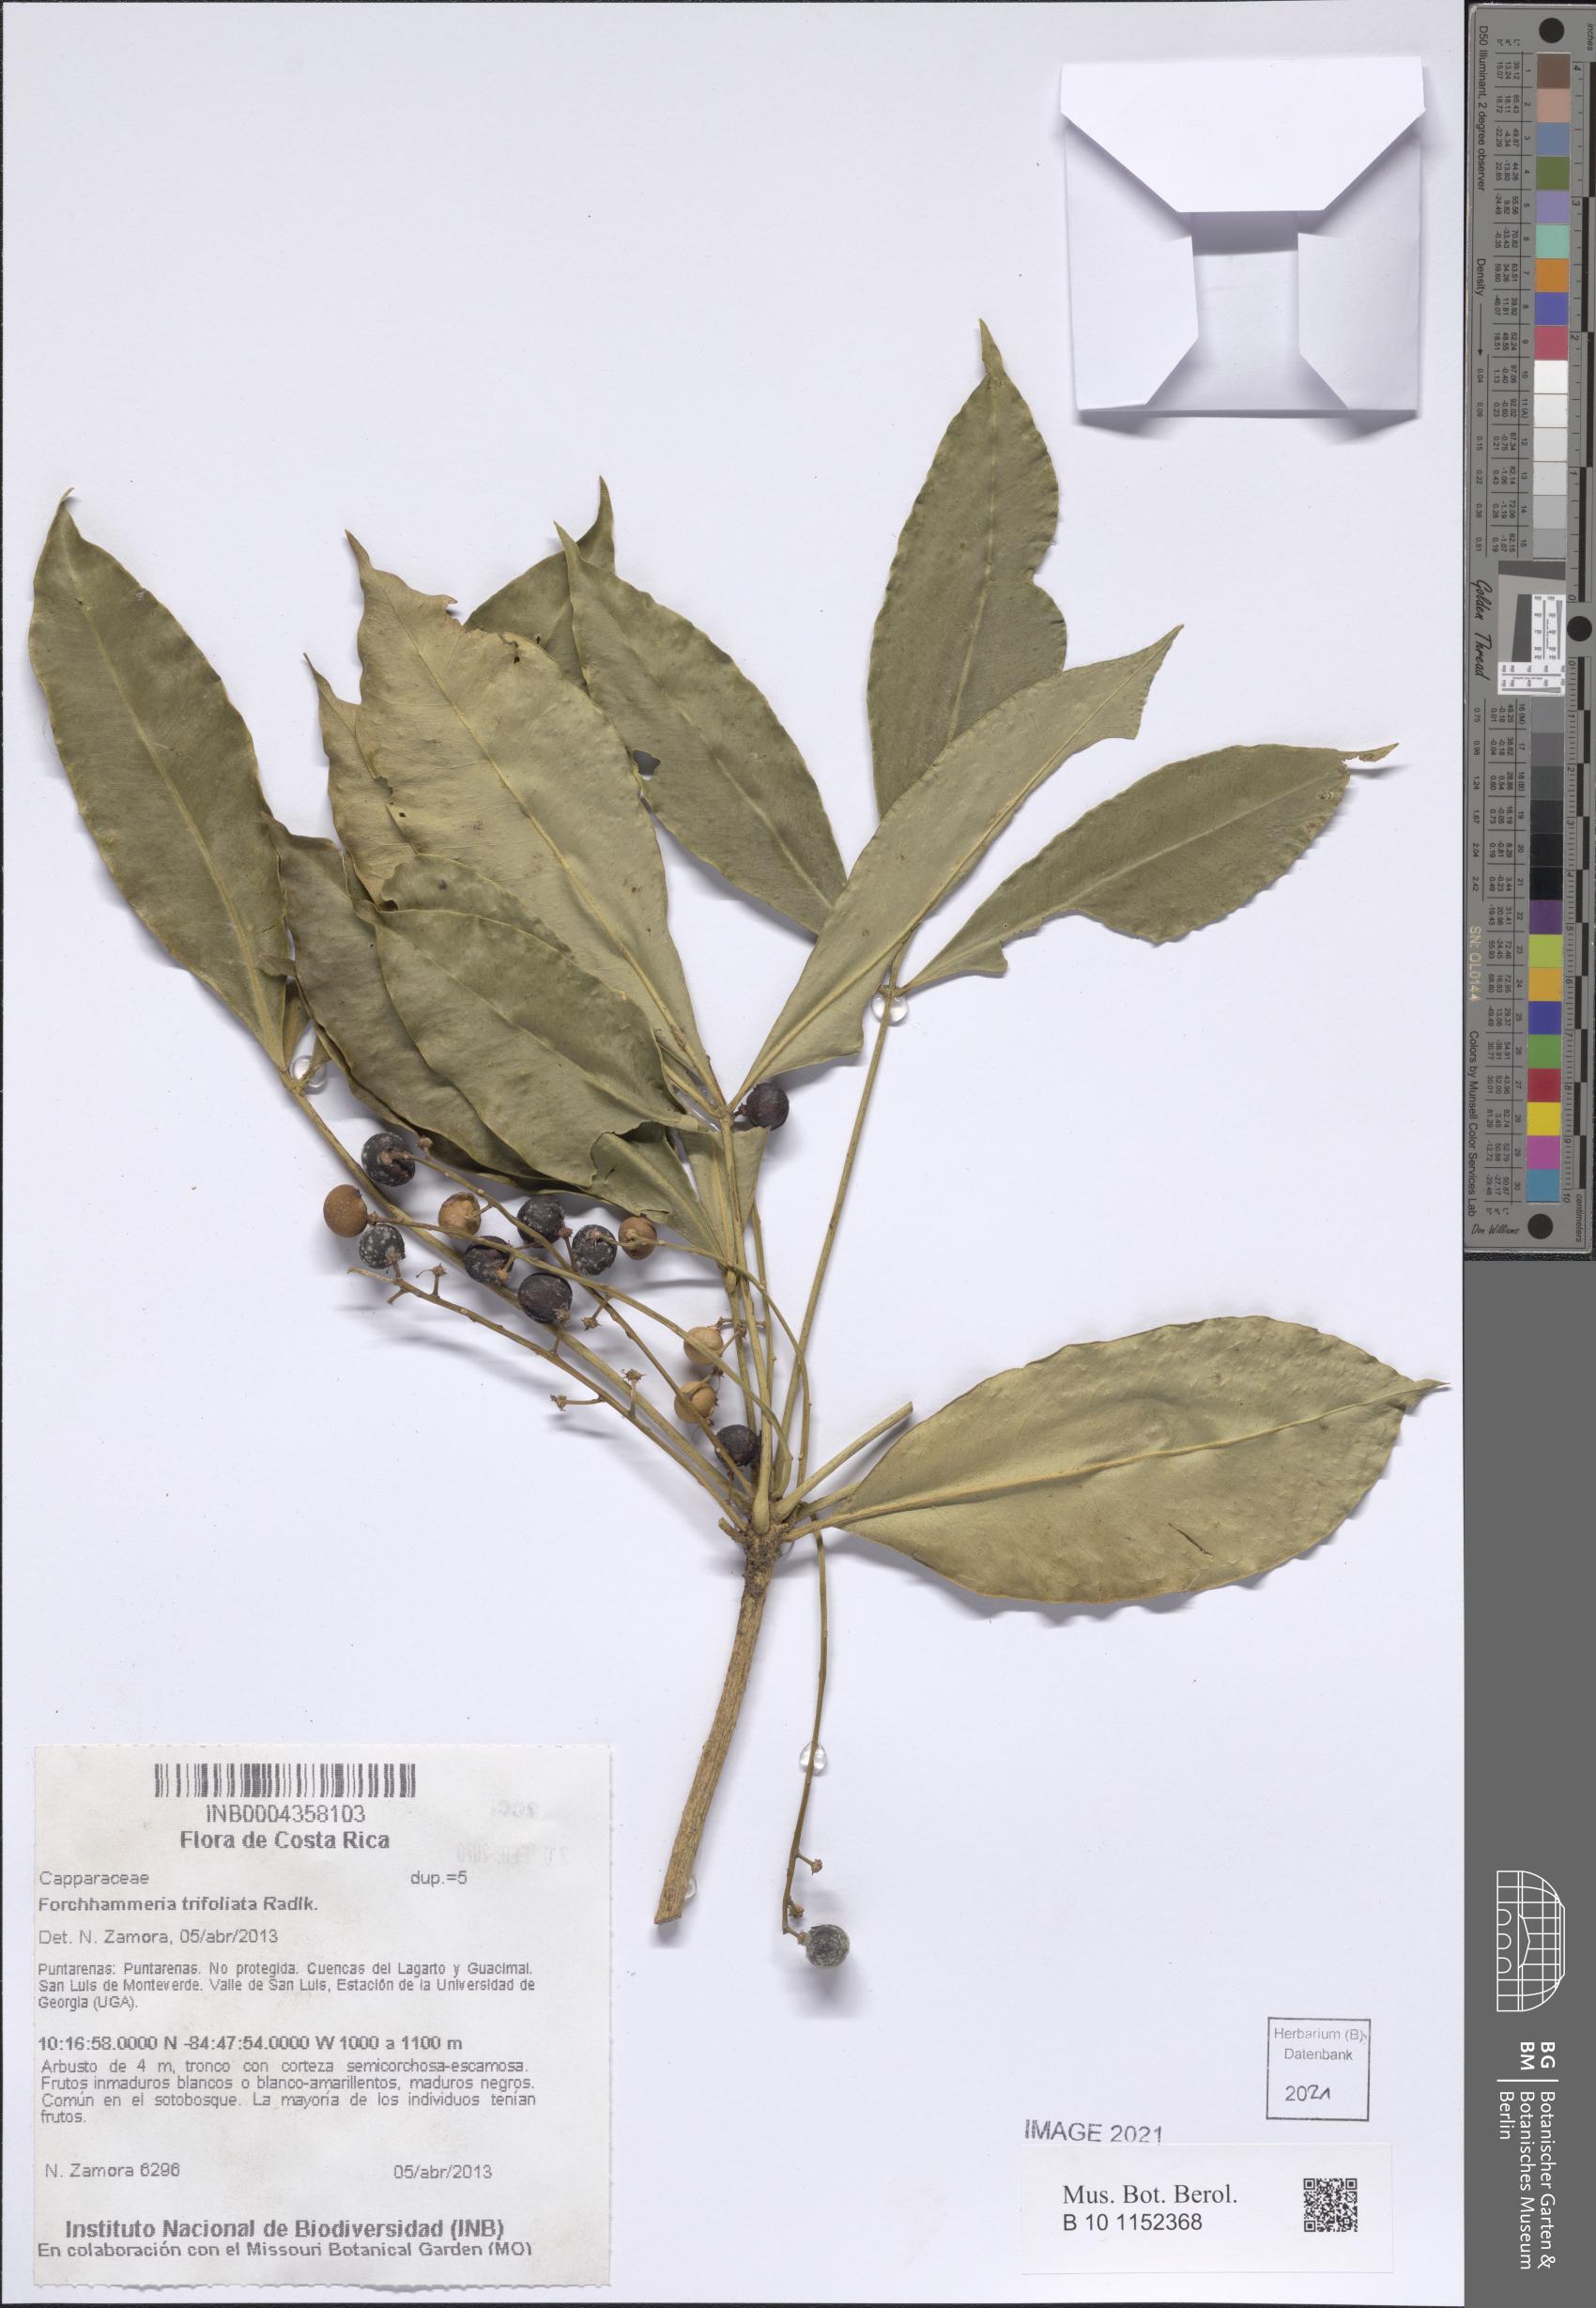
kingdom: Plantae
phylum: Tracheophyta
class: Magnoliopsida
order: Brassicales
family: Stixaceae
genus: Forchhammeria
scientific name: Forchhammeria trifoliata
